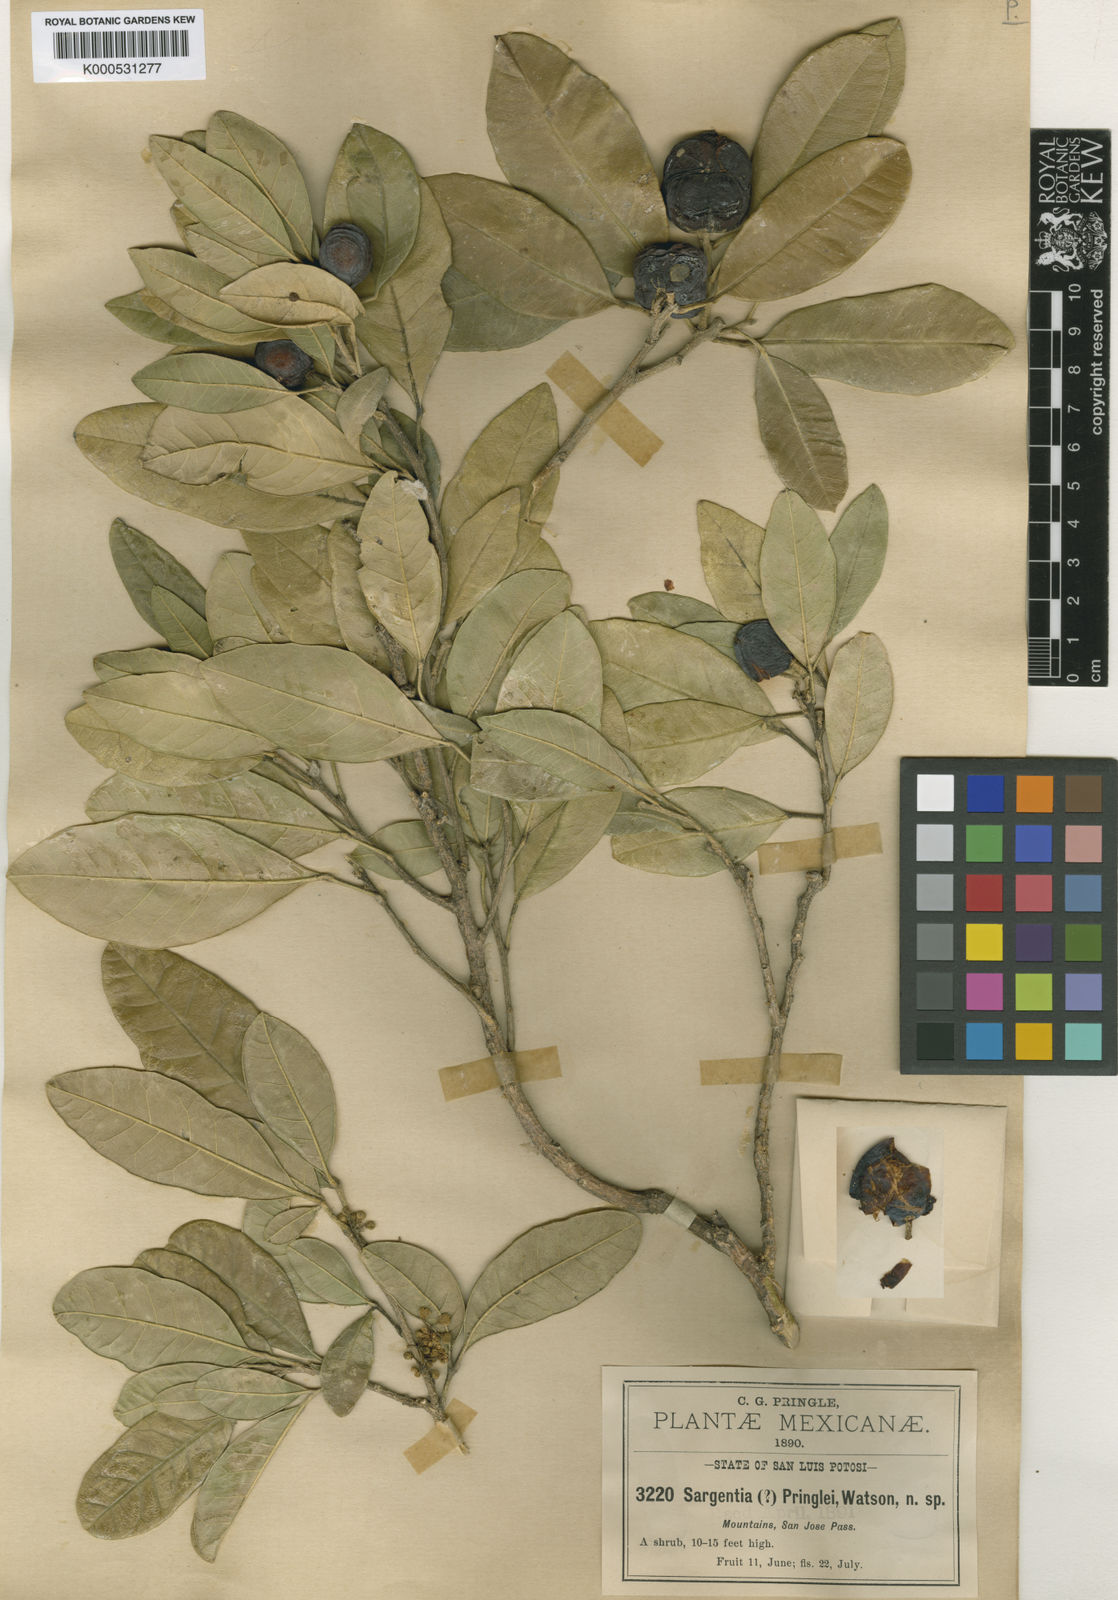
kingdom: Plantae
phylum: Tracheophyta
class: Magnoliopsida
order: Sapindales
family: Rutaceae
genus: Casimiroa
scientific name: Casimiroa pringlei
